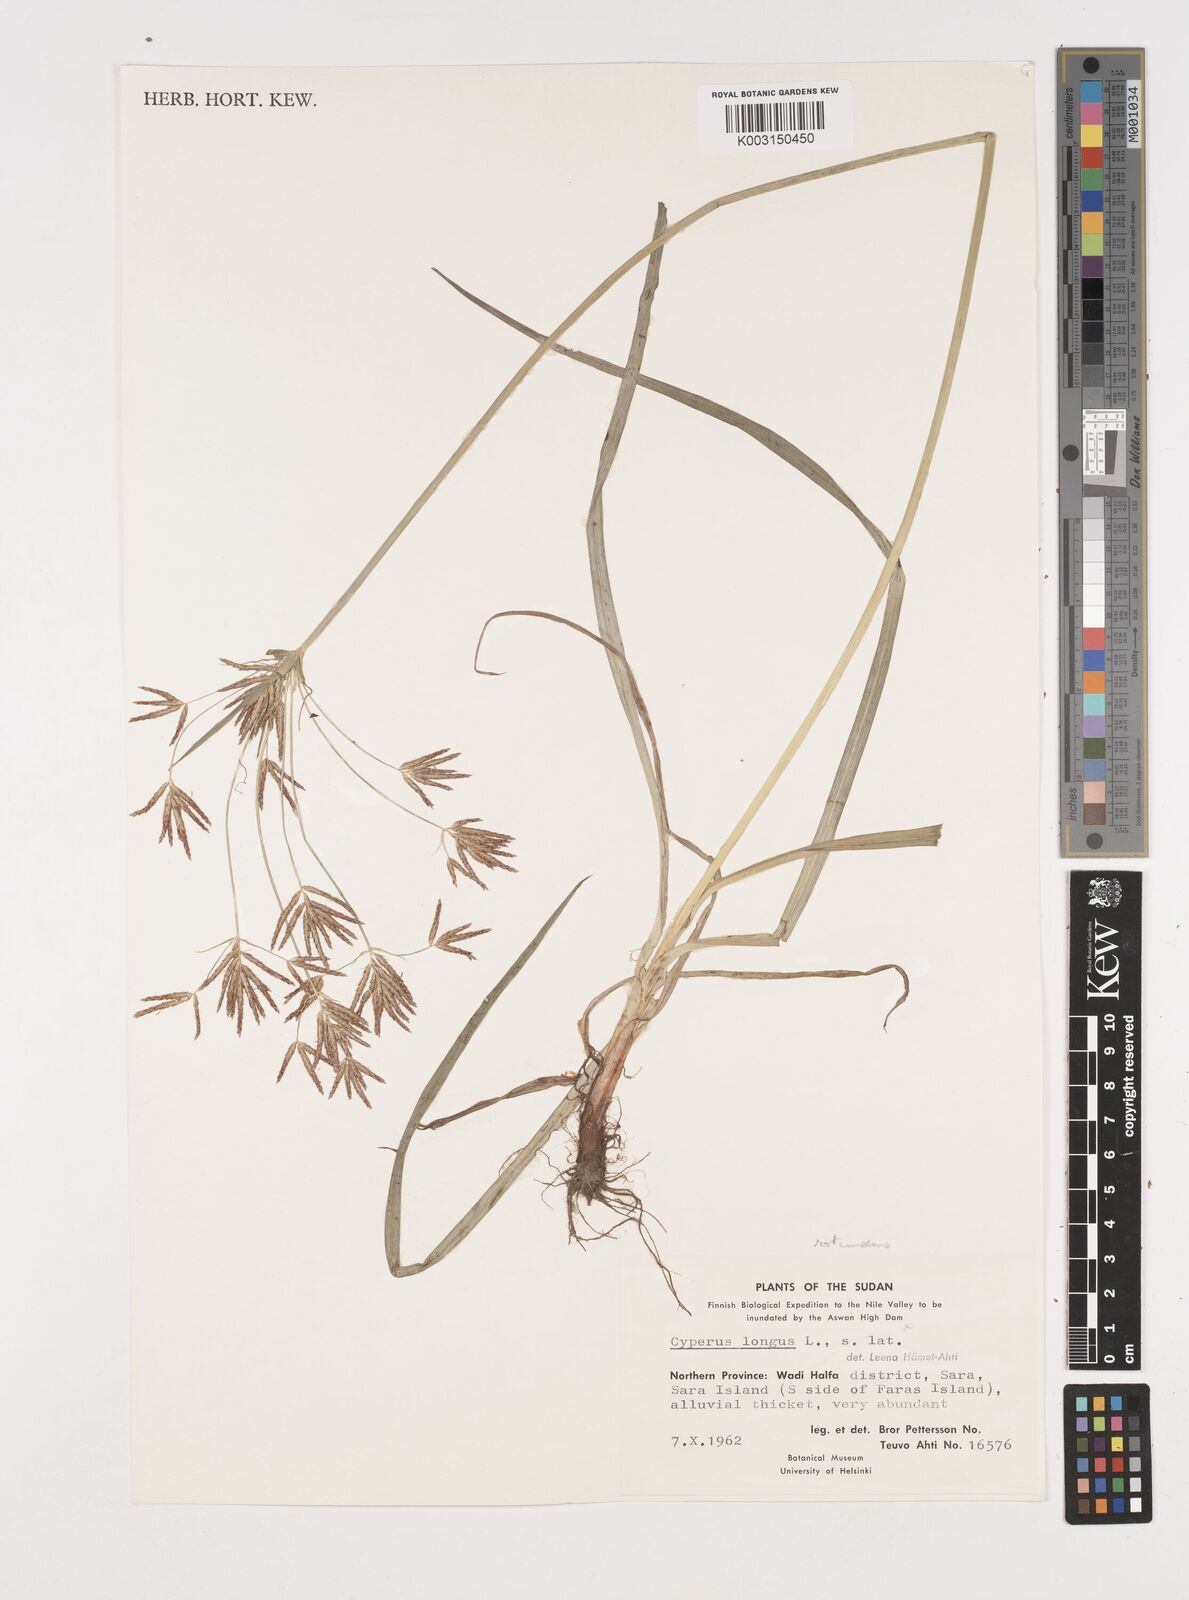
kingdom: Plantae
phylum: Tracheophyta
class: Liliopsida
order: Poales
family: Cyperaceae
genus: Cyperus
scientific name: Cyperus rotundus
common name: Nutgrass
